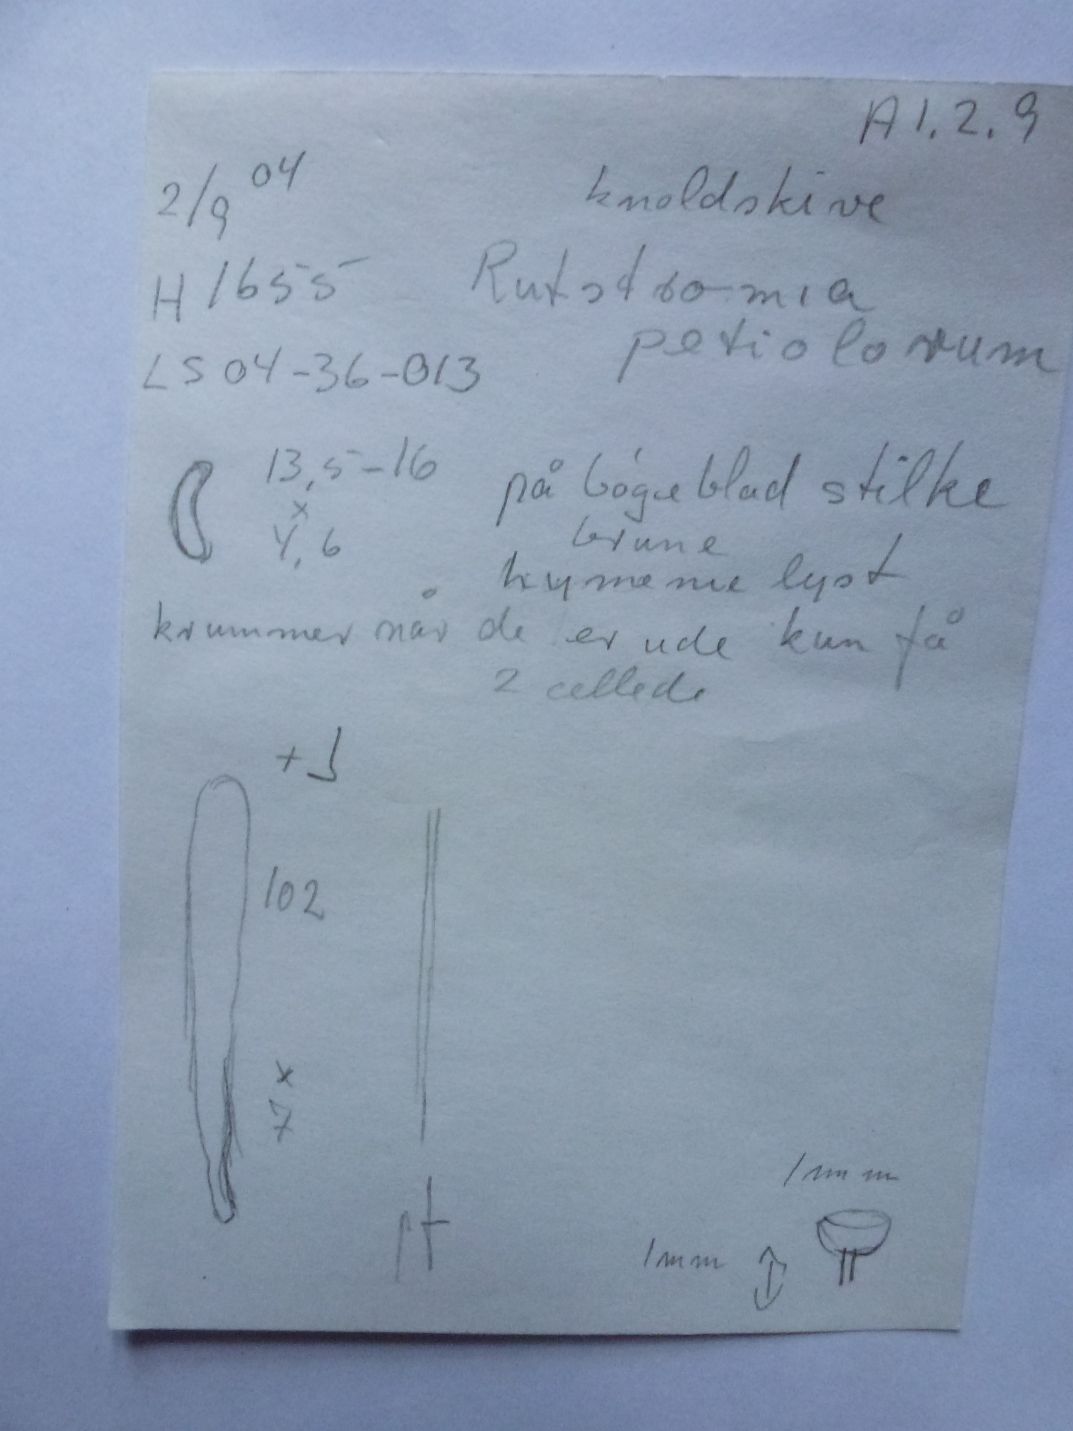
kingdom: Fungi
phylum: Ascomycota
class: Leotiomycetes
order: Helotiales
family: Rutstroemiaceae
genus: Rutstroemia
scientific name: Rutstroemia petiolorum
